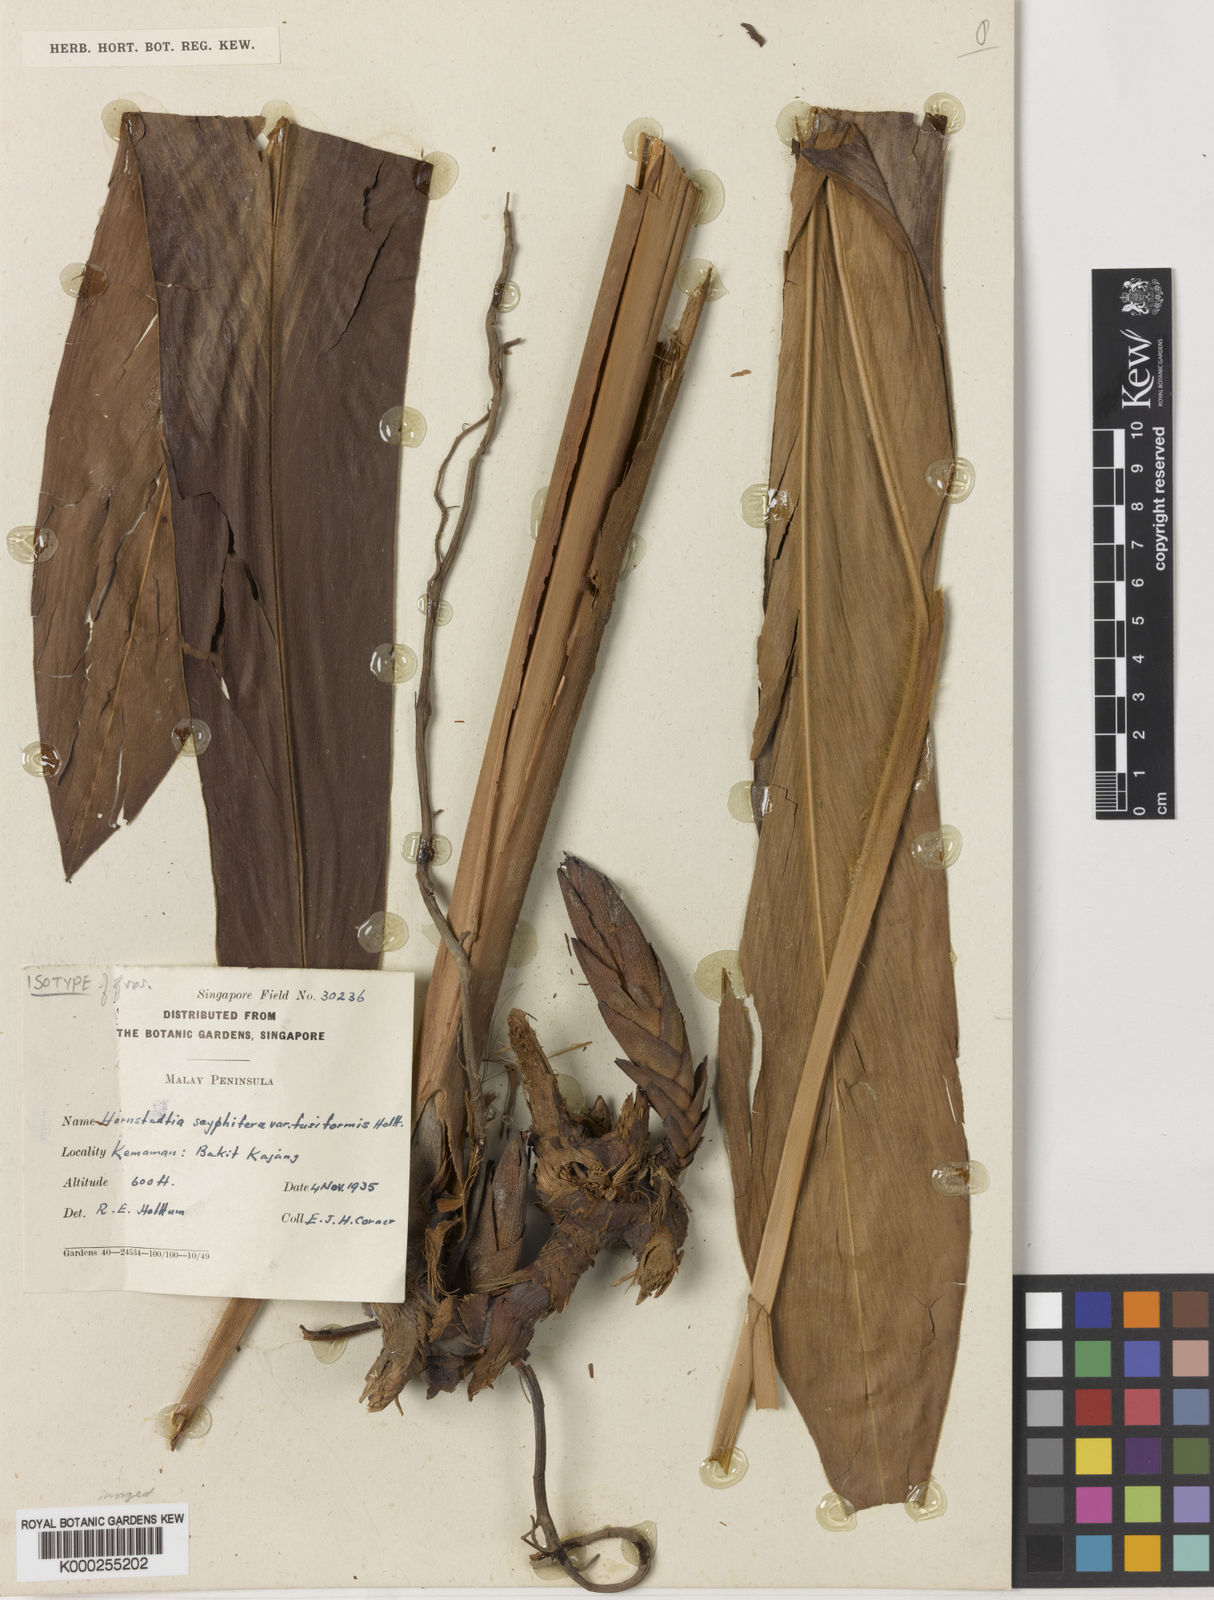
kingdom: Plantae
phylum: Tracheophyta
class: Liliopsida
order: Zingiberales
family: Zingiberaceae
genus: Hornstedtia
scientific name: Hornstedtia scyphifera
